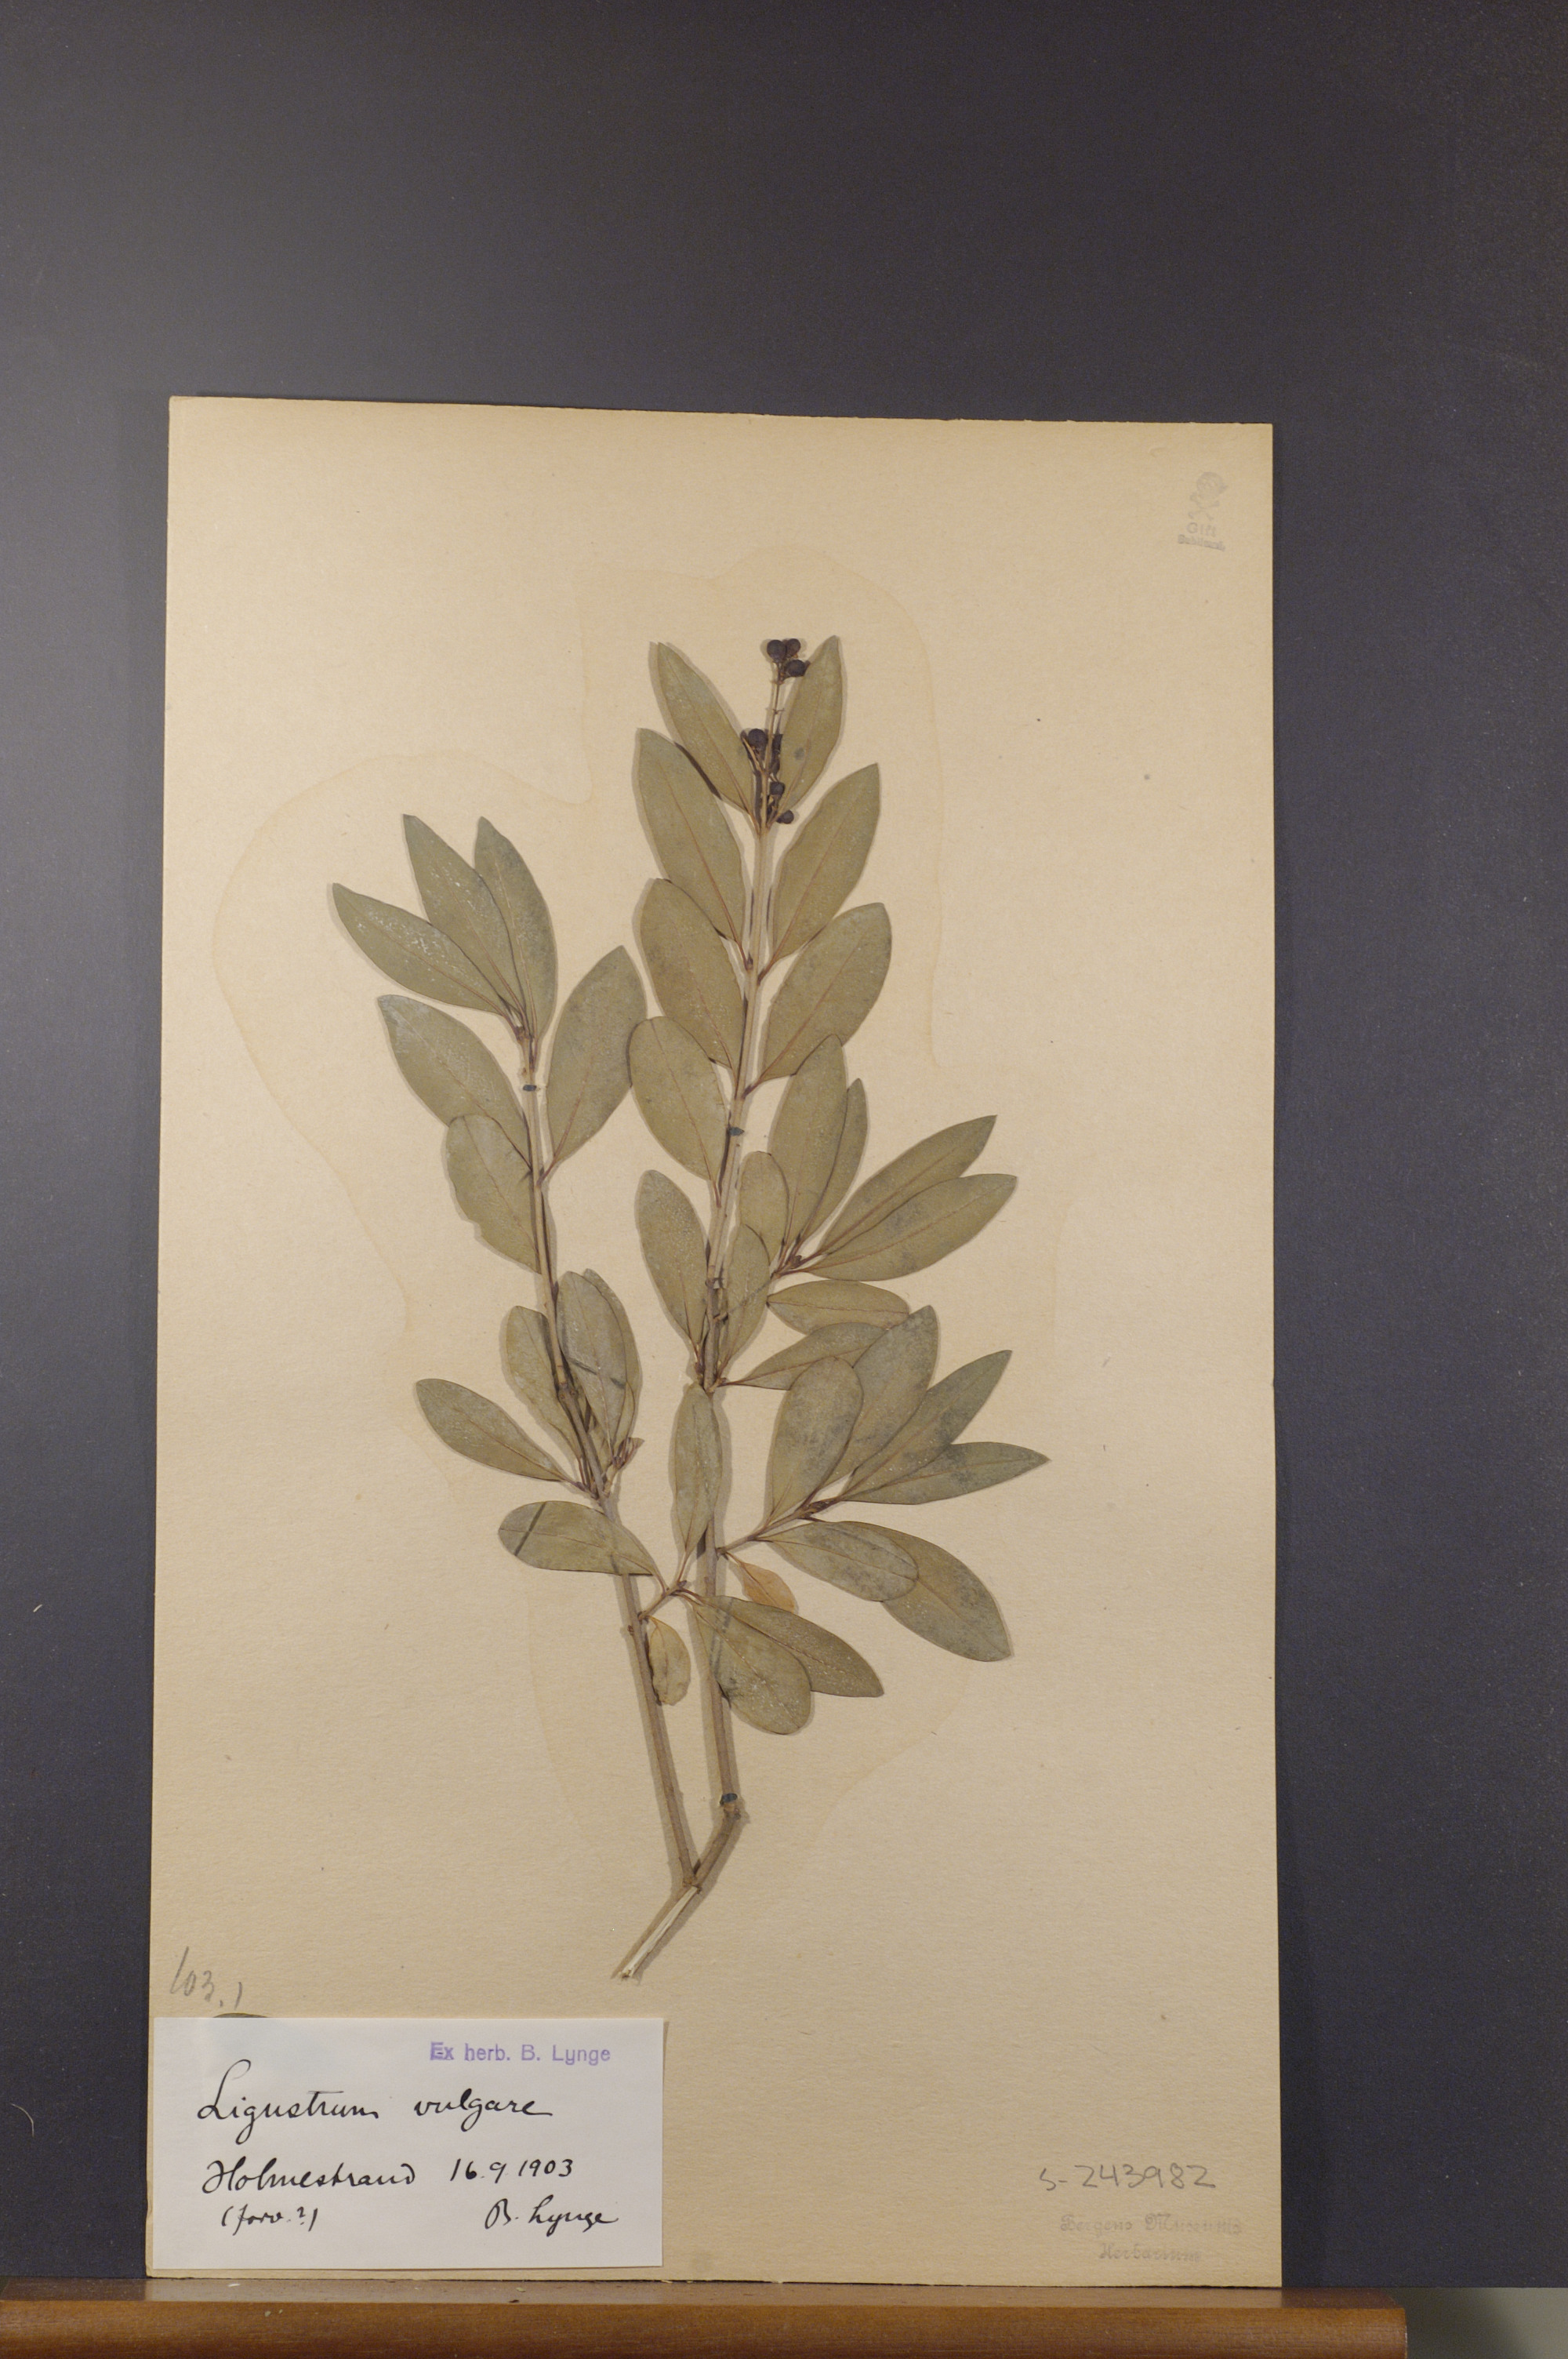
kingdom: Plantae
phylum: Tracheophyta
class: Magnoliopsida
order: Lamiales
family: Oleaceae
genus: Ligustrum
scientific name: Ligustrum vulgare
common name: Wild privet
